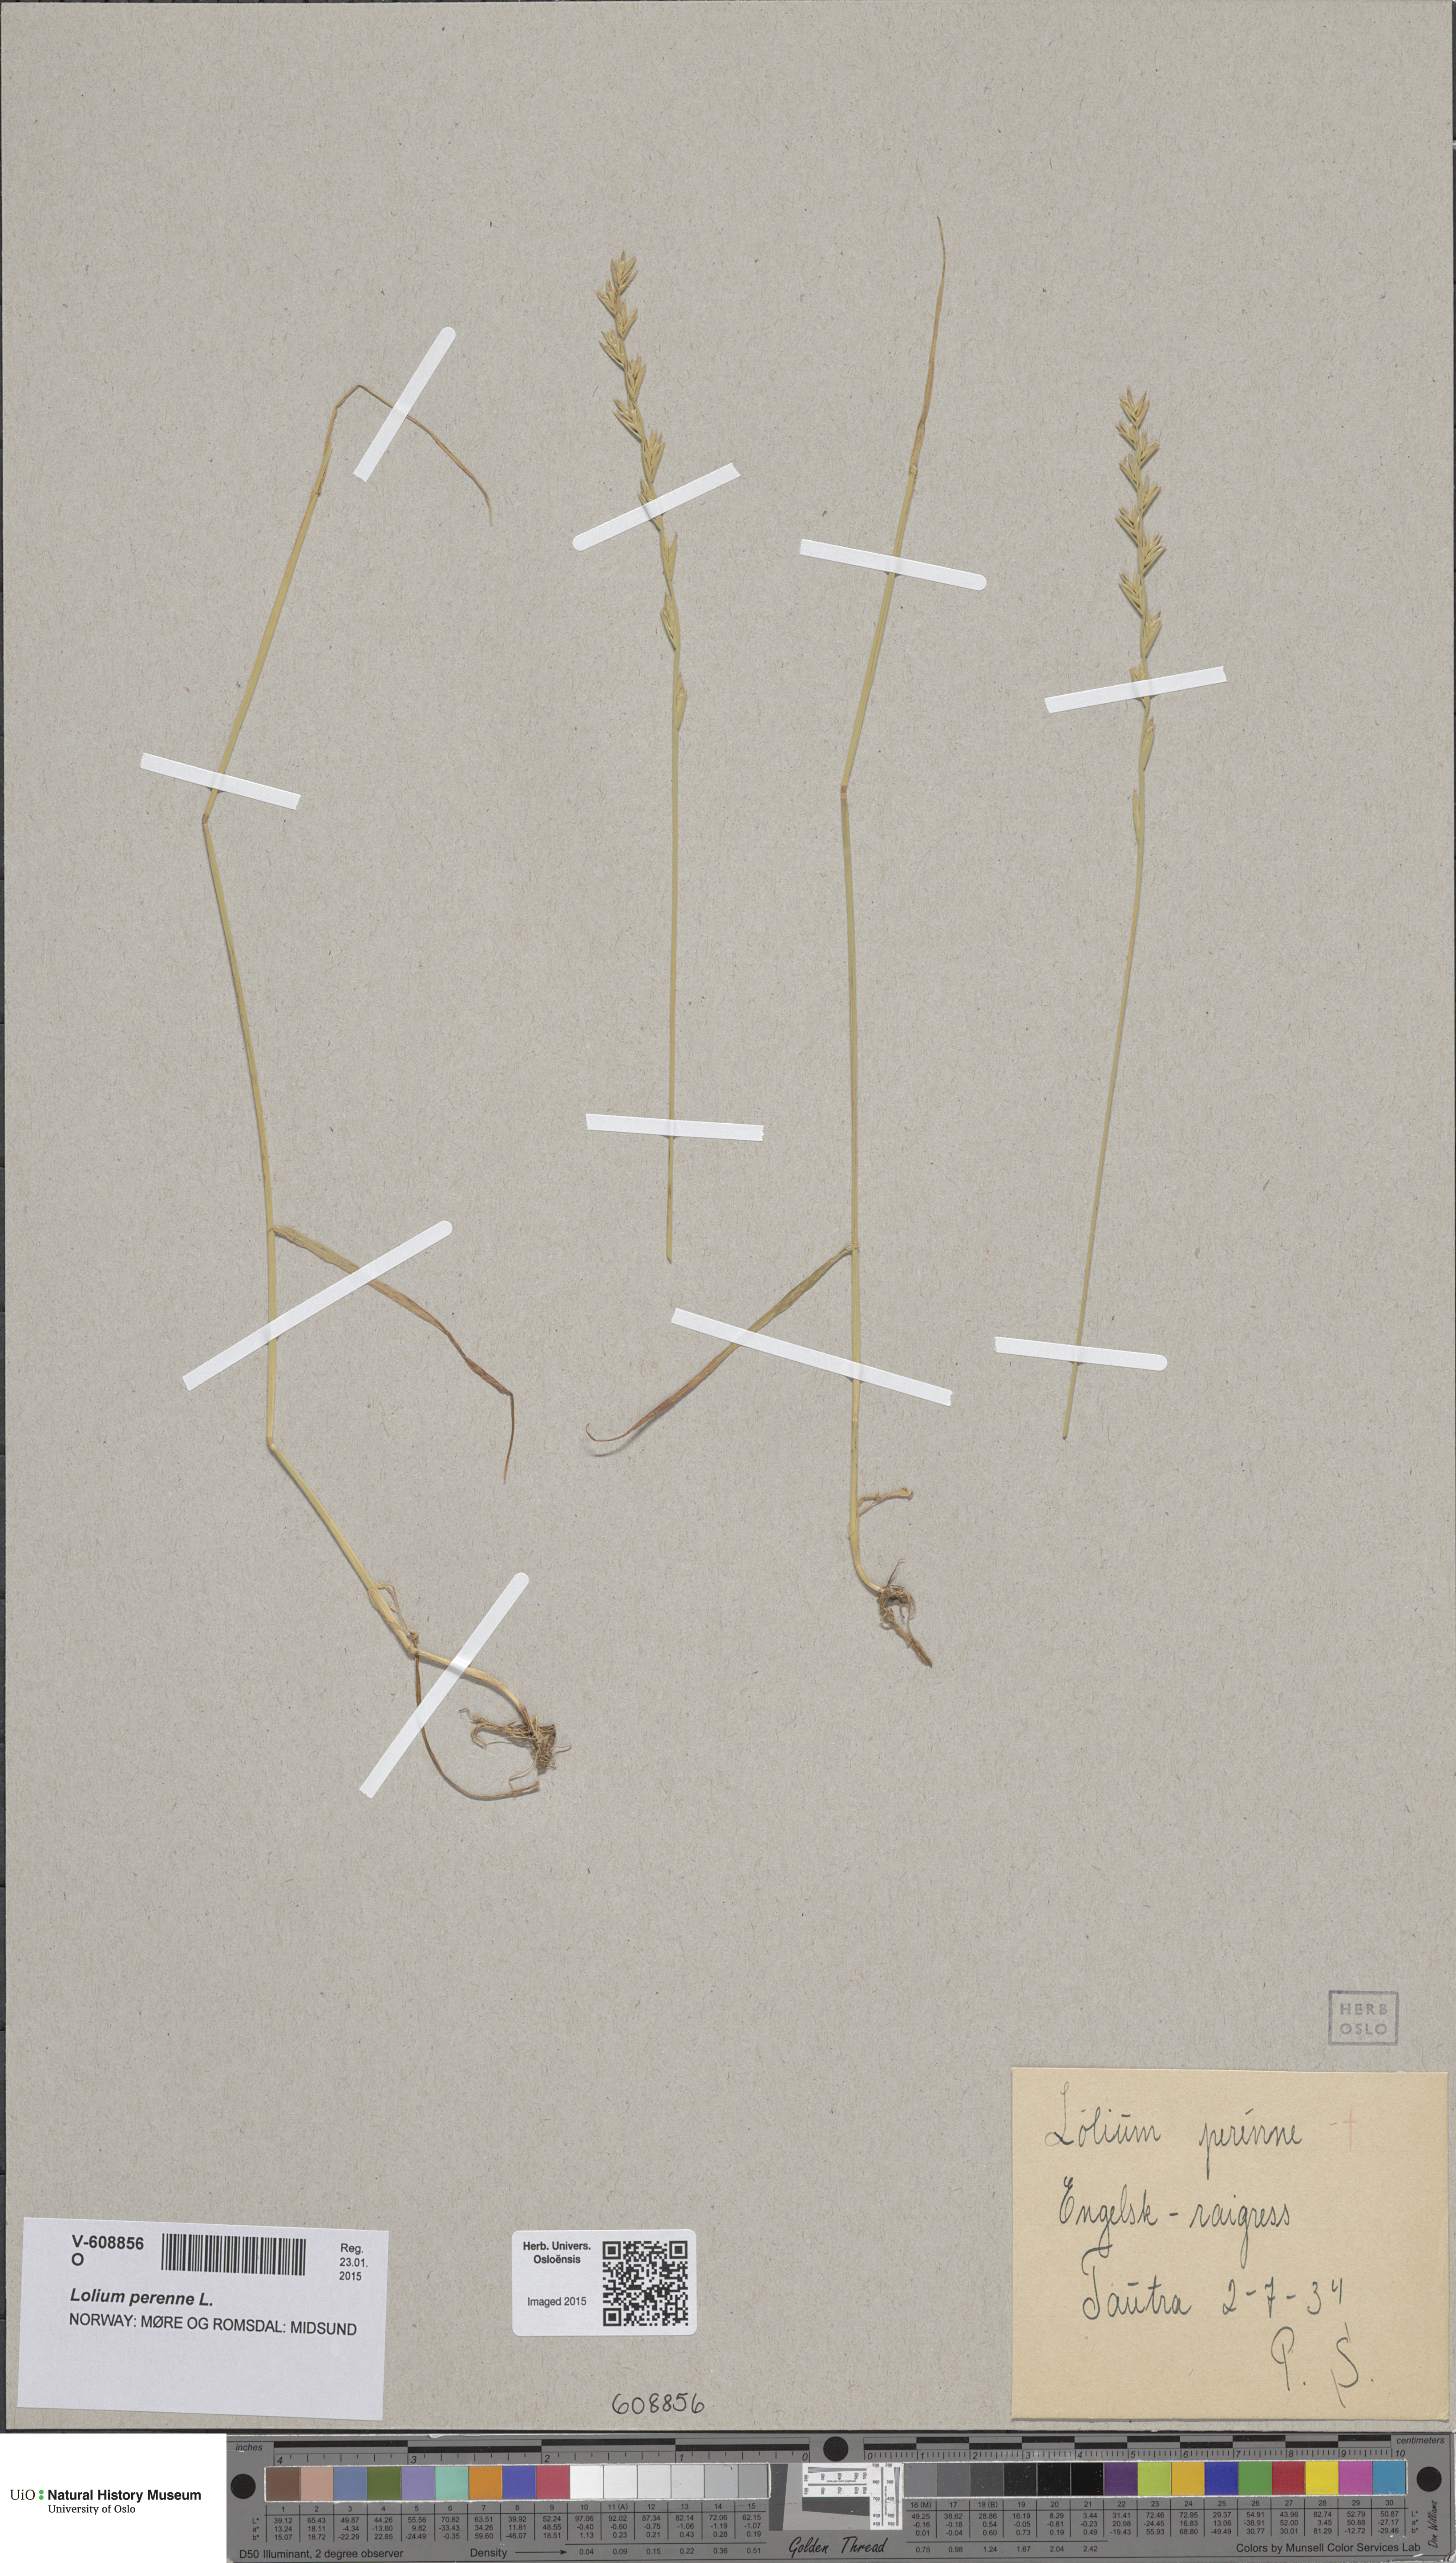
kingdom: Plantae
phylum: Tracheophyta
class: Liliopsida
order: Poales
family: Poaceae
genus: Lolium
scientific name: Lolium perenne
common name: Perennial ryegrass
